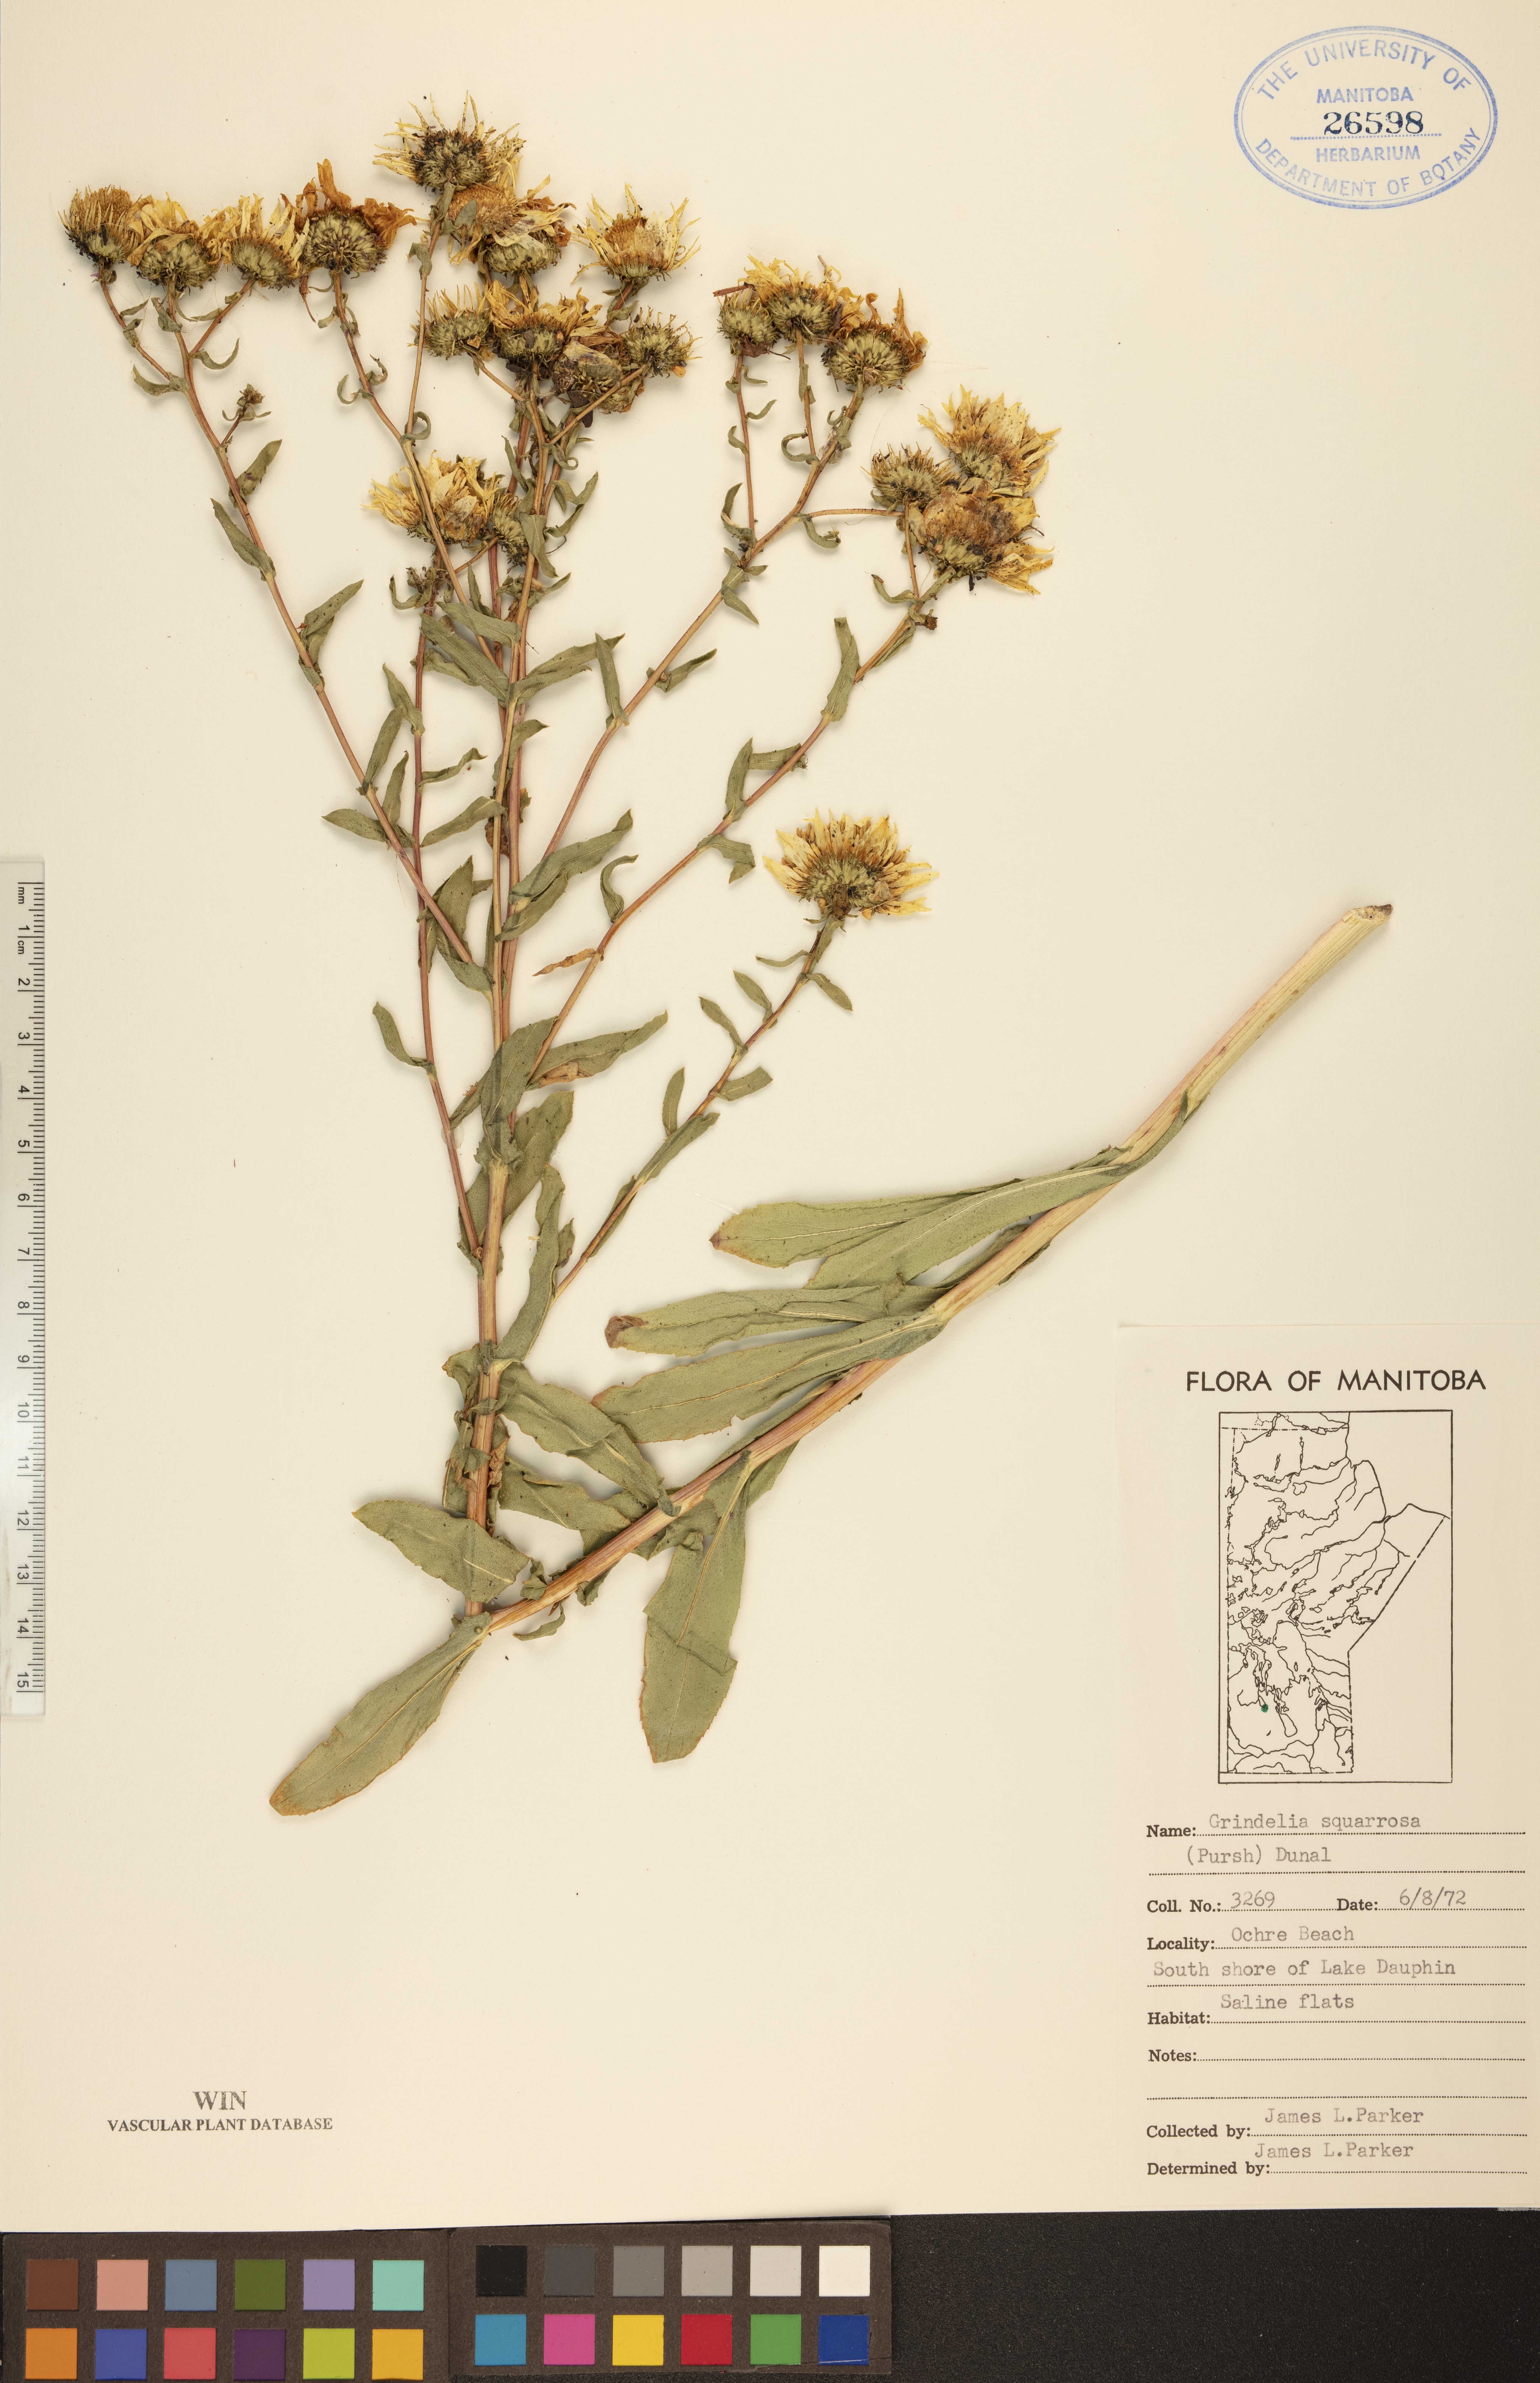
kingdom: Plantae
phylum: Tracheophyta
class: Magnoliopsida
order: Asterales
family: Asteraceae
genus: Grindelia
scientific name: Grindelia squarrosa
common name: Curly-cup gumweed
